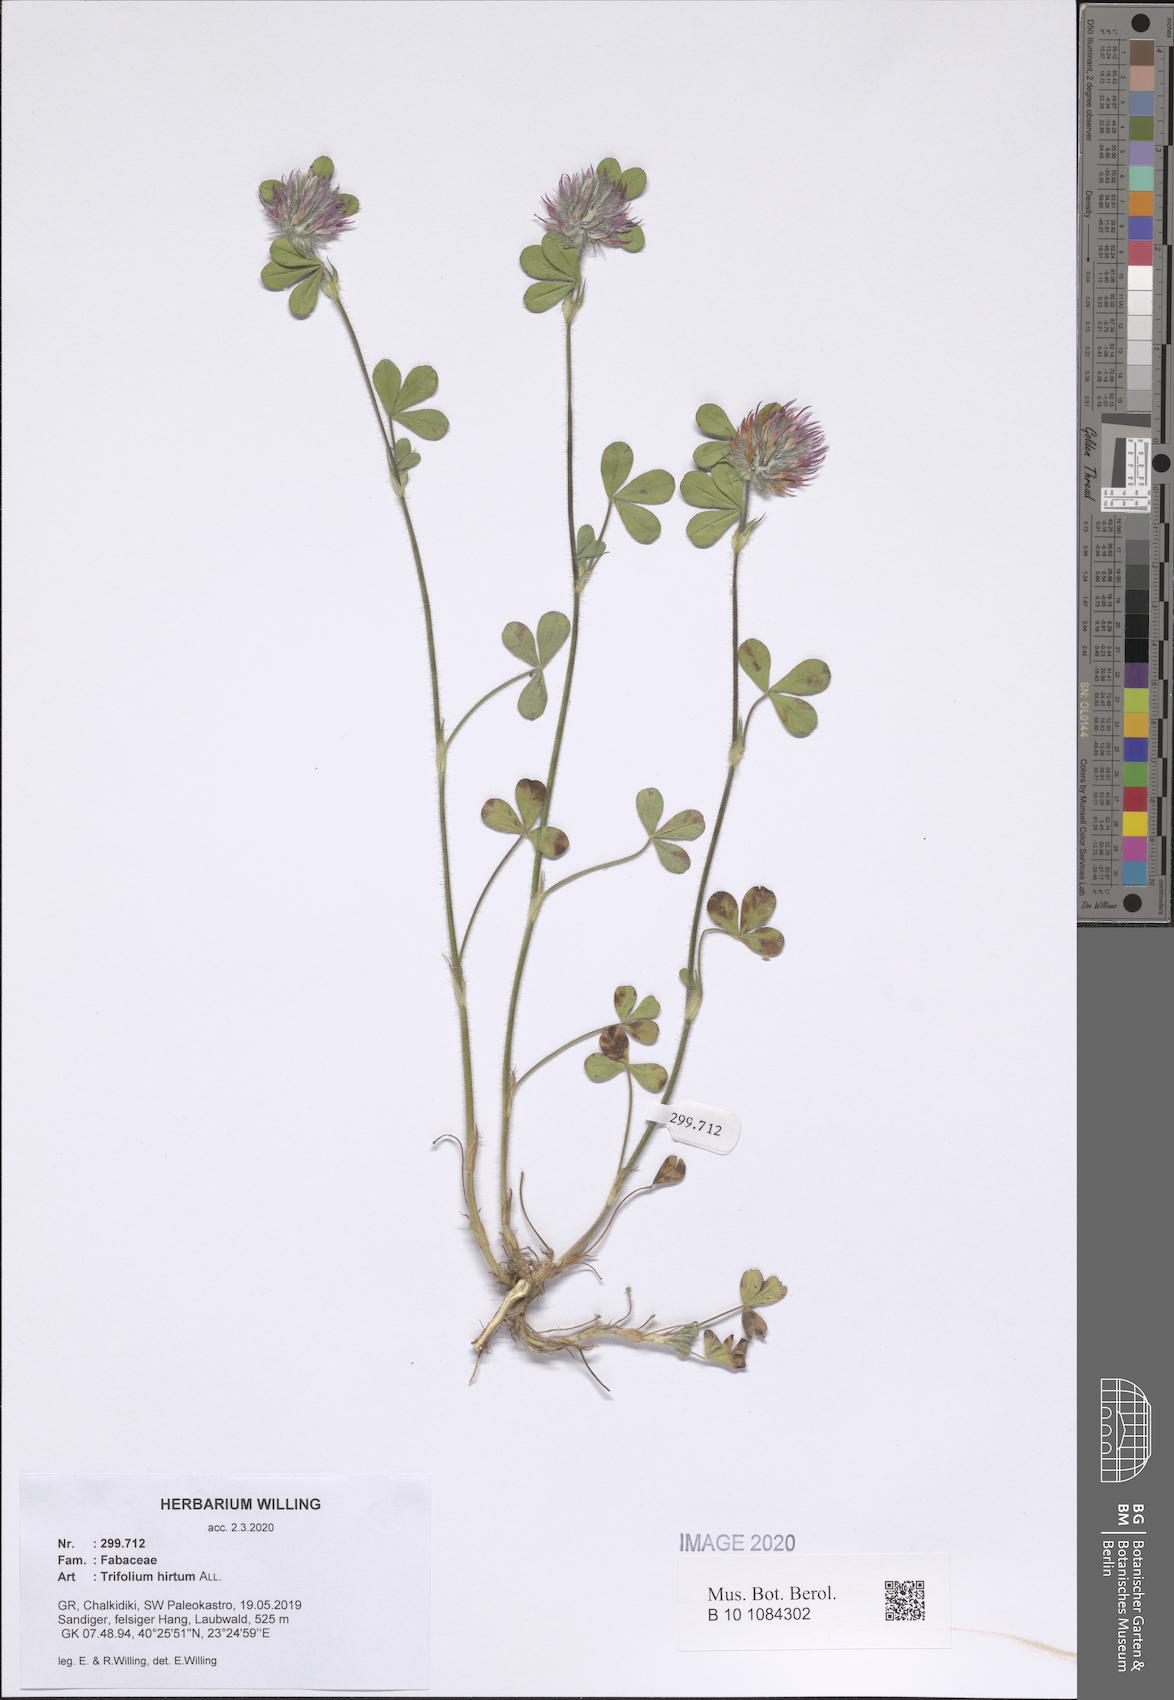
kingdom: Plantae
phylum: Tracheophyta
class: Magnoliopsida
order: Fabales
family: Fabaceae
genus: Trifolium
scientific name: Trifolium hirtum
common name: Rose clover
